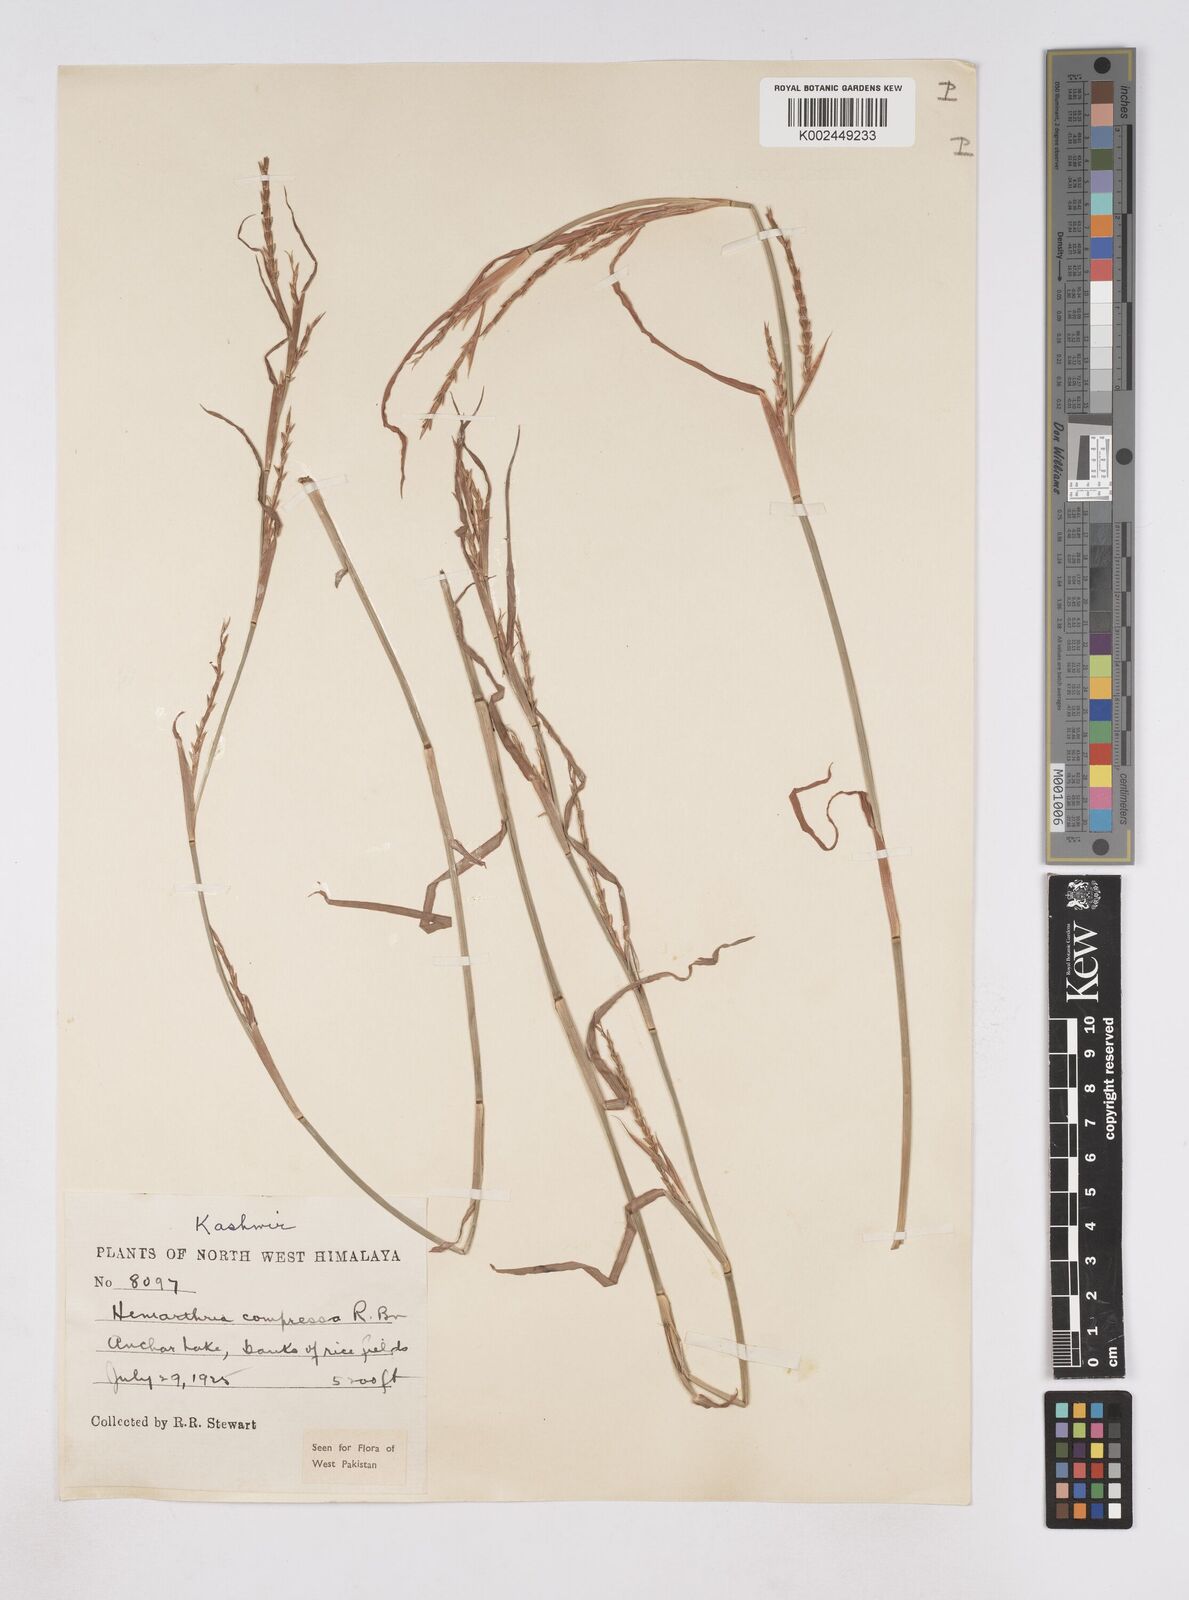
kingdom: Plantae
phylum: Tracheophyta
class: Liliopsida
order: Poales
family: Poaceae
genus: Hemarthria
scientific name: Hemarthria compressa
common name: Whip grass
